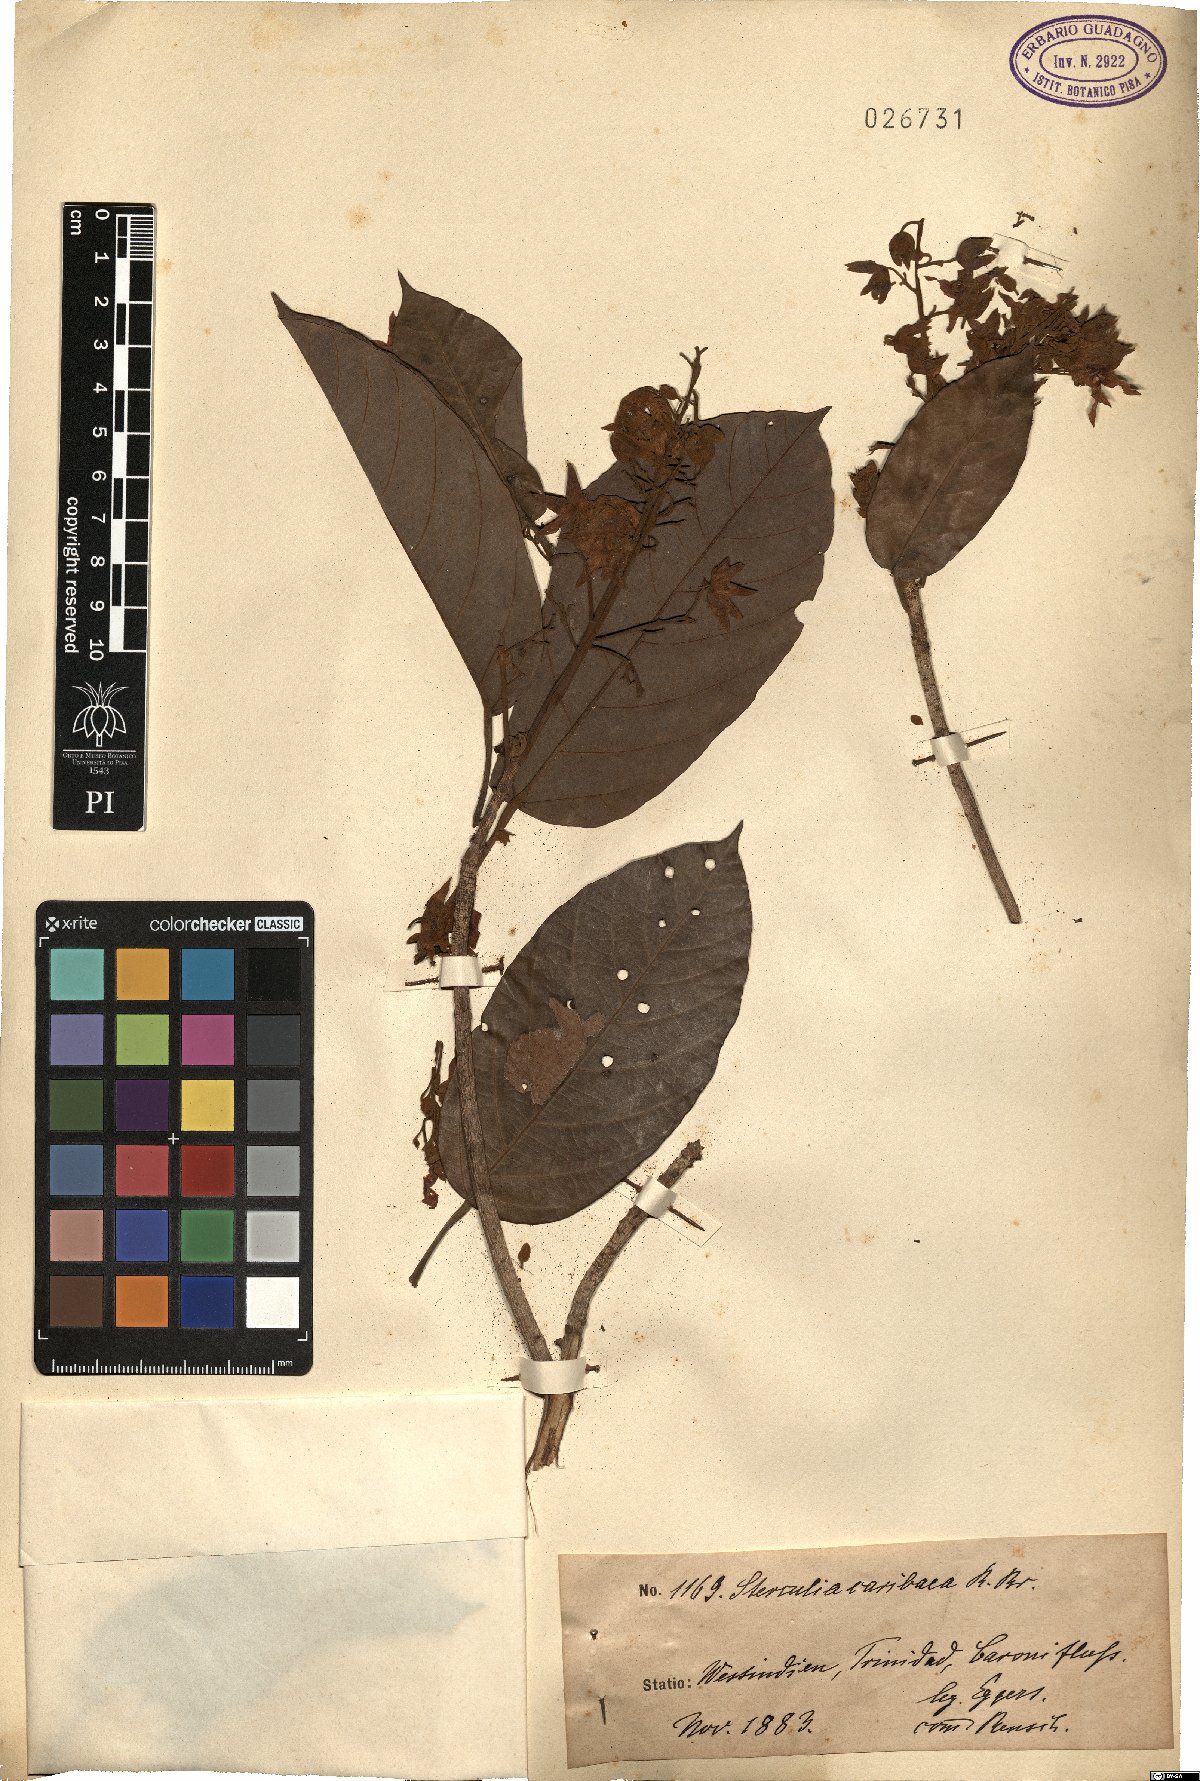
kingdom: Plantae
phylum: Tracheophyta
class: Magnoliopsida
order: Malvales
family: Malvaceae
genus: Sterculia
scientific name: Sterculia caribaea
